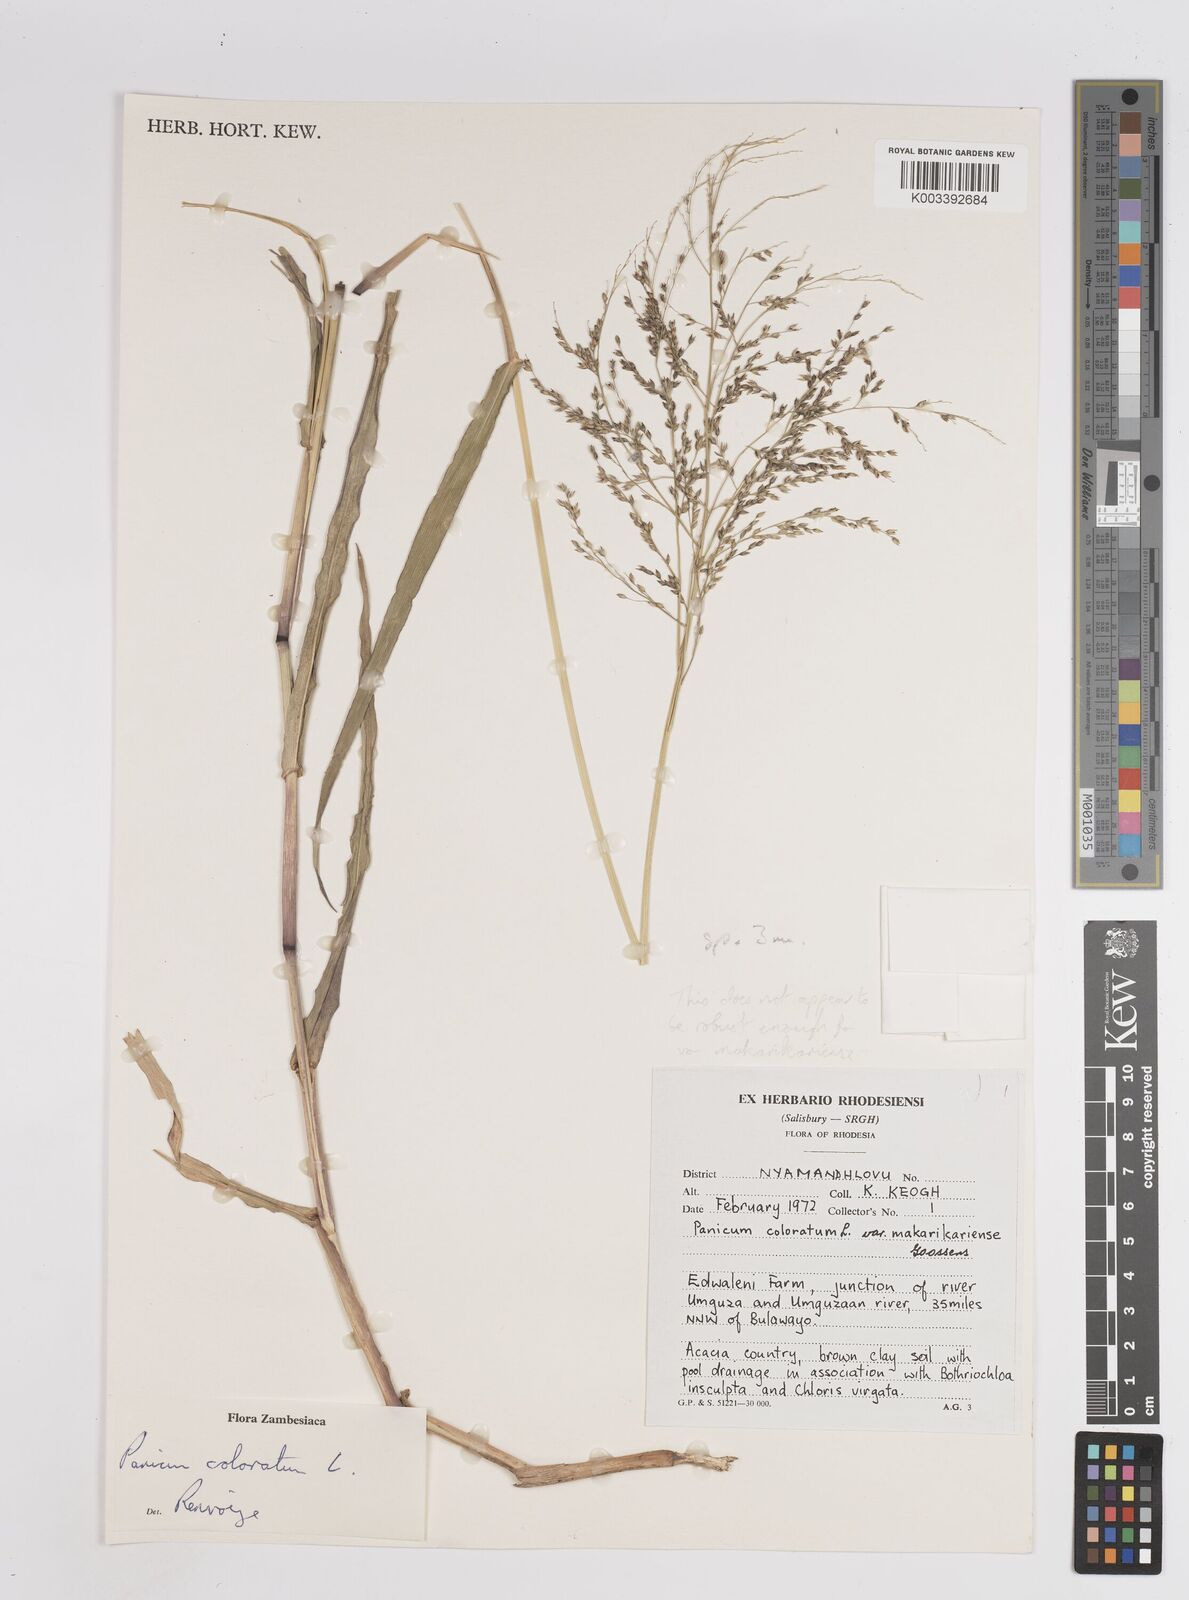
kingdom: Plantae
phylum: Tracheophyta
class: Liliopsida
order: Poales
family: Poaceae
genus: Panicum
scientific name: Panicum
